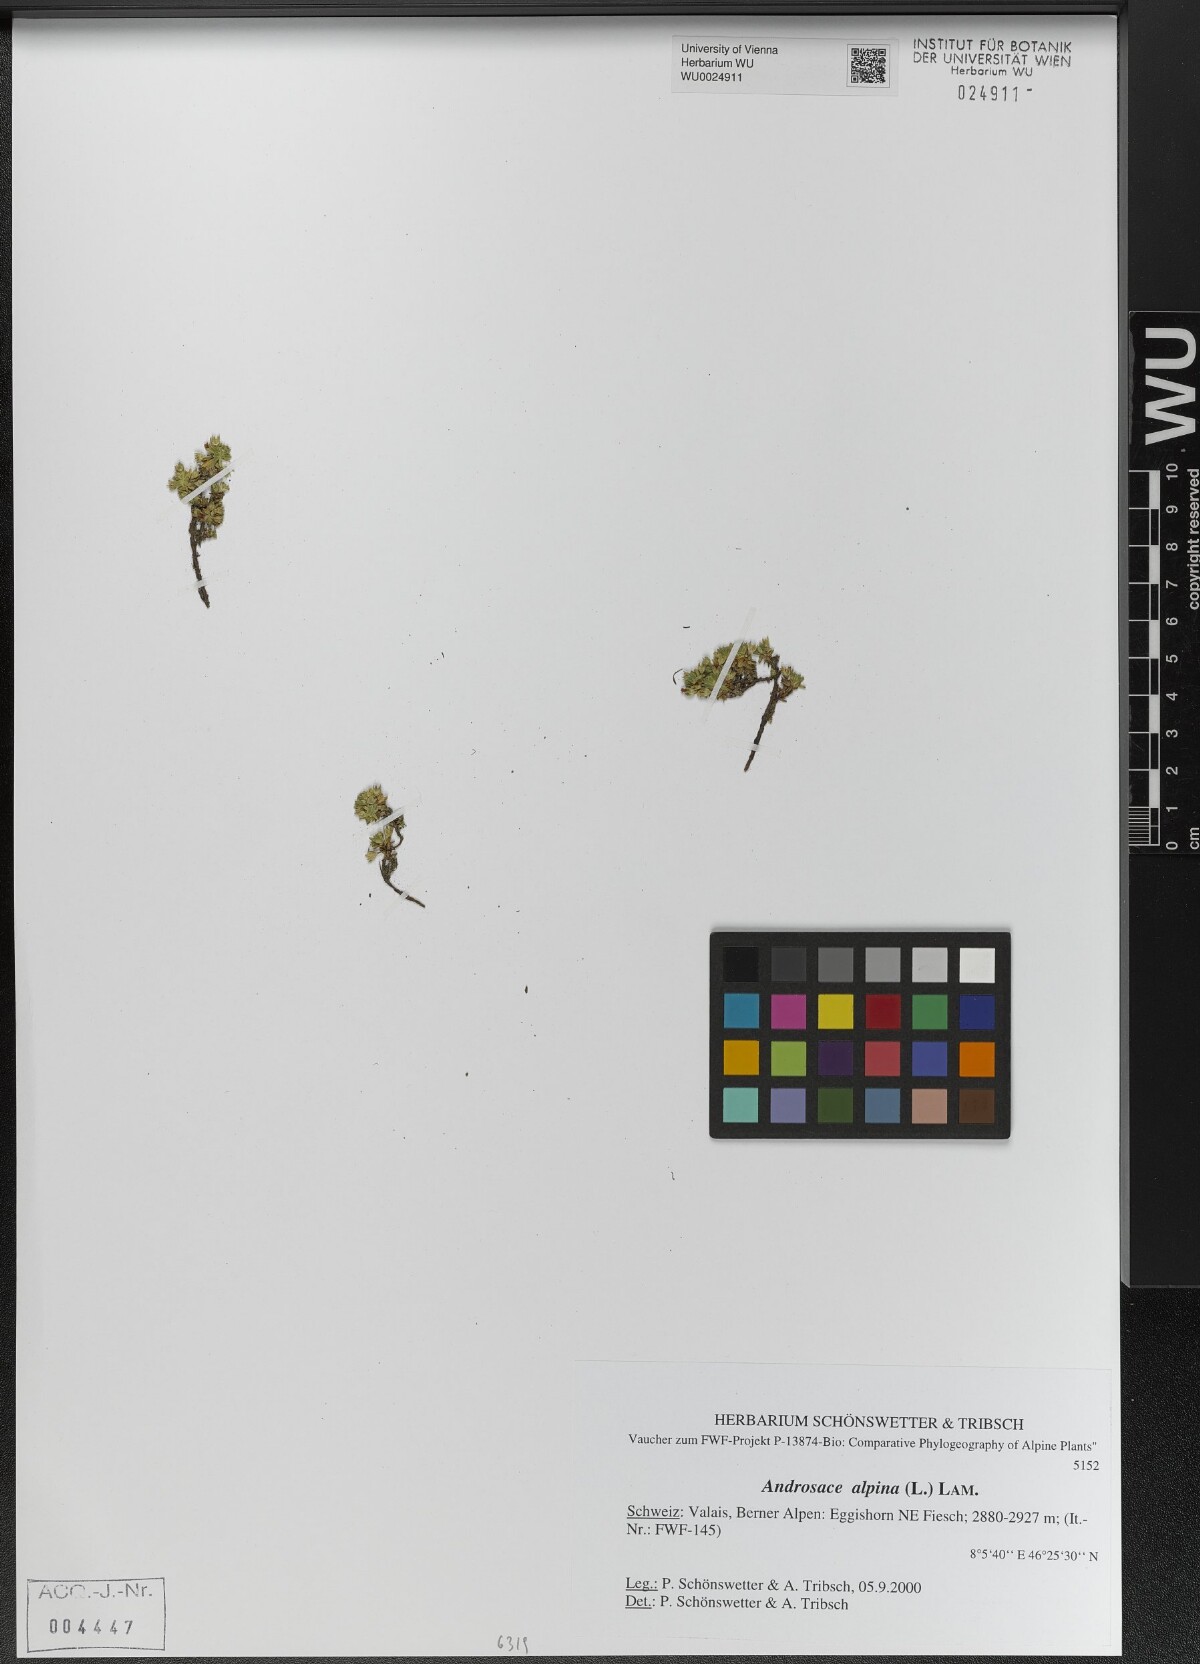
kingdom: Plantae
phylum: Tracheophyta
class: Magnoliopsida
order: Ericales
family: Primulaceae
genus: Androsace
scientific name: Androsace alpina
